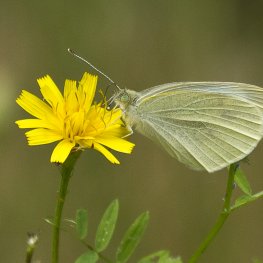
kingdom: Animalia
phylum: Arthropoda
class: Insecta
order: Lepidoptera
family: Pieridae
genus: Pieris
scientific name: Pieris rapae
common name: Cabbage White
